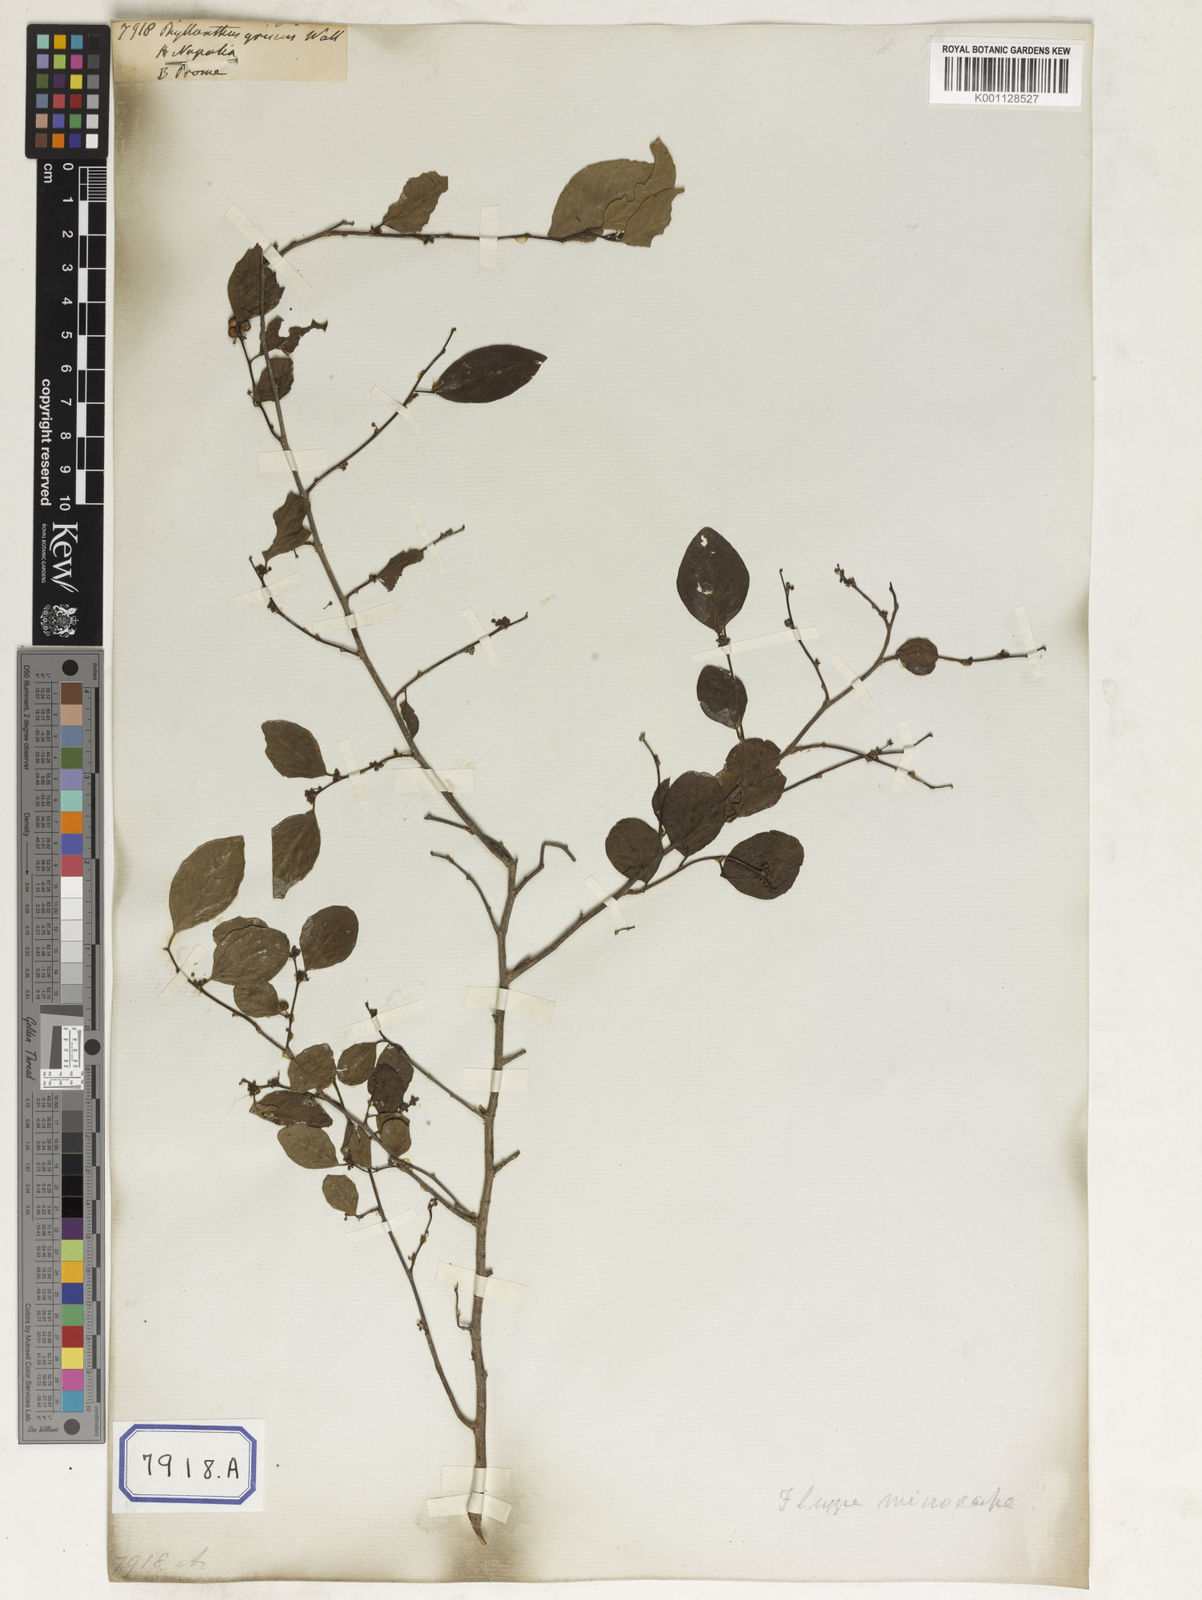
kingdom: Plantae
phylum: Tracheophyta
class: Magnoliopsida
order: Malpighiales
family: Phyllanthaceae
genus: Phyllanthus
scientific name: Phyllanthus
